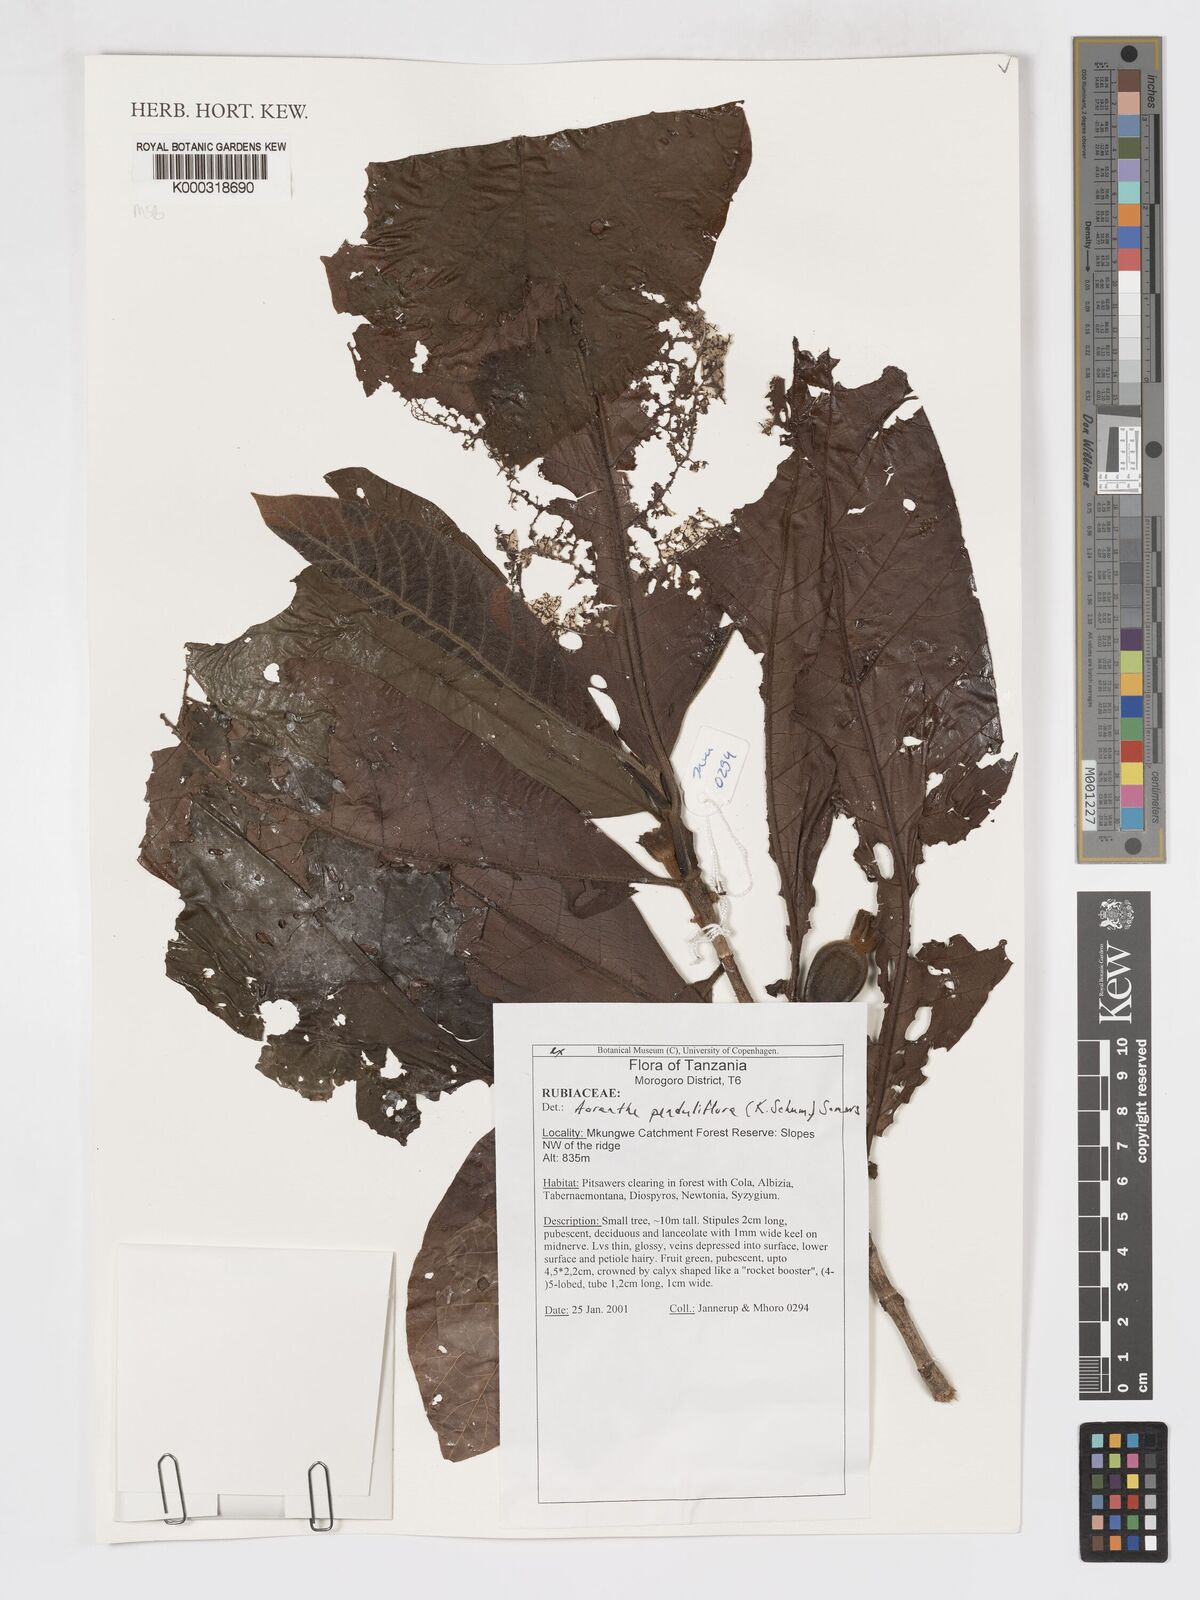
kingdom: Plantae
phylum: Tracheophyta
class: Magnoliopsida
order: Gentianales
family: Rubiaceae
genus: Aoranthe
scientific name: Aoranthe penduliflora
